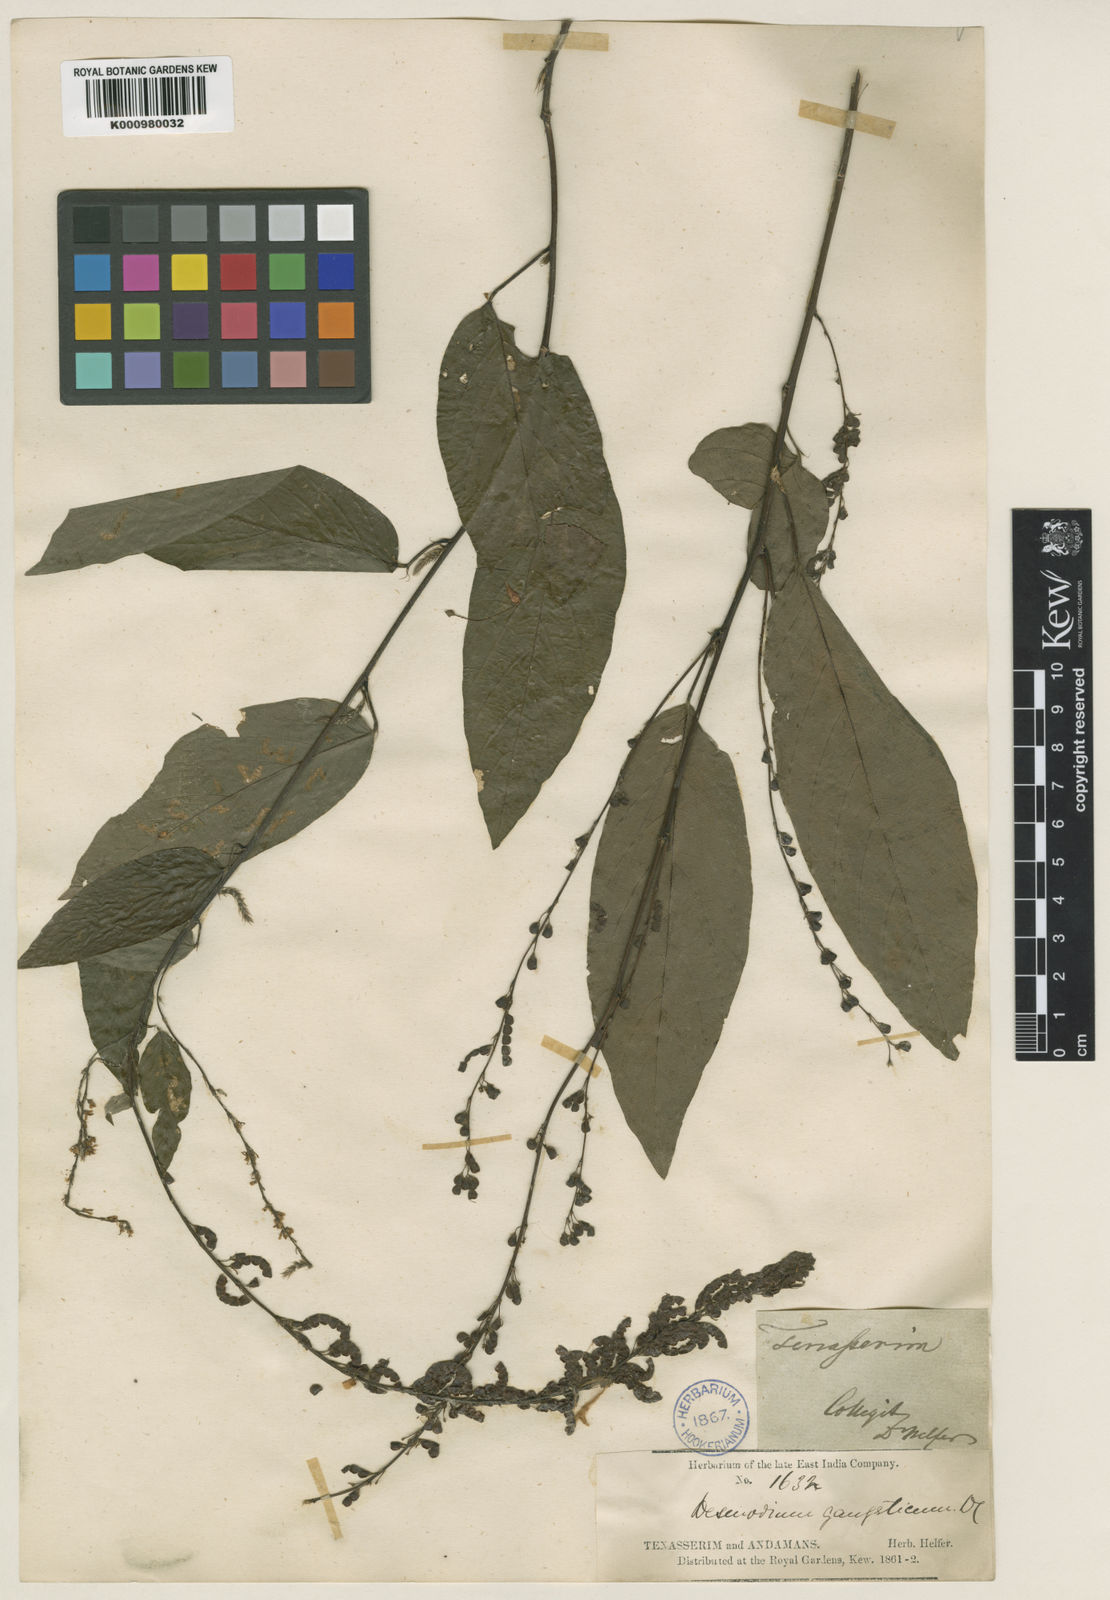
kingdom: Plantae
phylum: Tracheophyta
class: Magnoliopsida
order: Fabales
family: Fabaceae
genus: Pleurolobus
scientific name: Pleurolobus gangeticus
